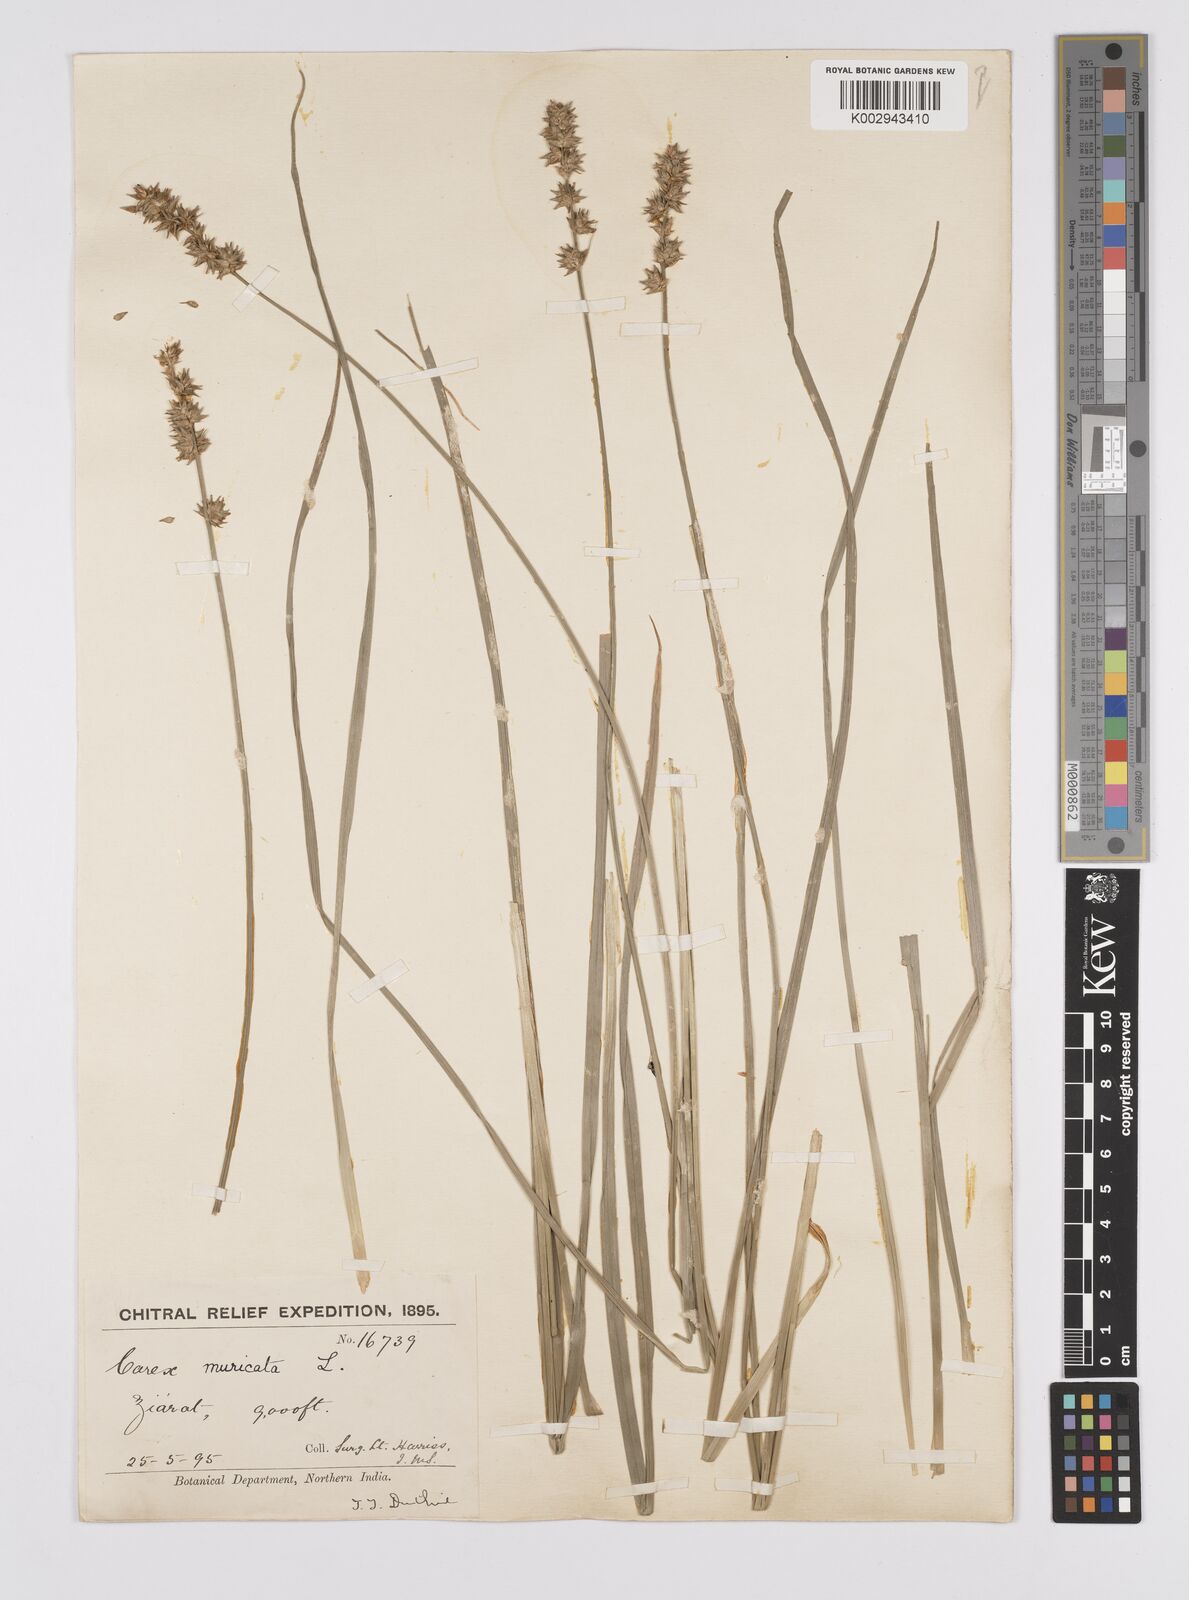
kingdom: Plantae
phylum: Tracheophyta
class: Liliopsida
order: Poales
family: Cyperaceae
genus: Carex
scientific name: Carex polyphylla
